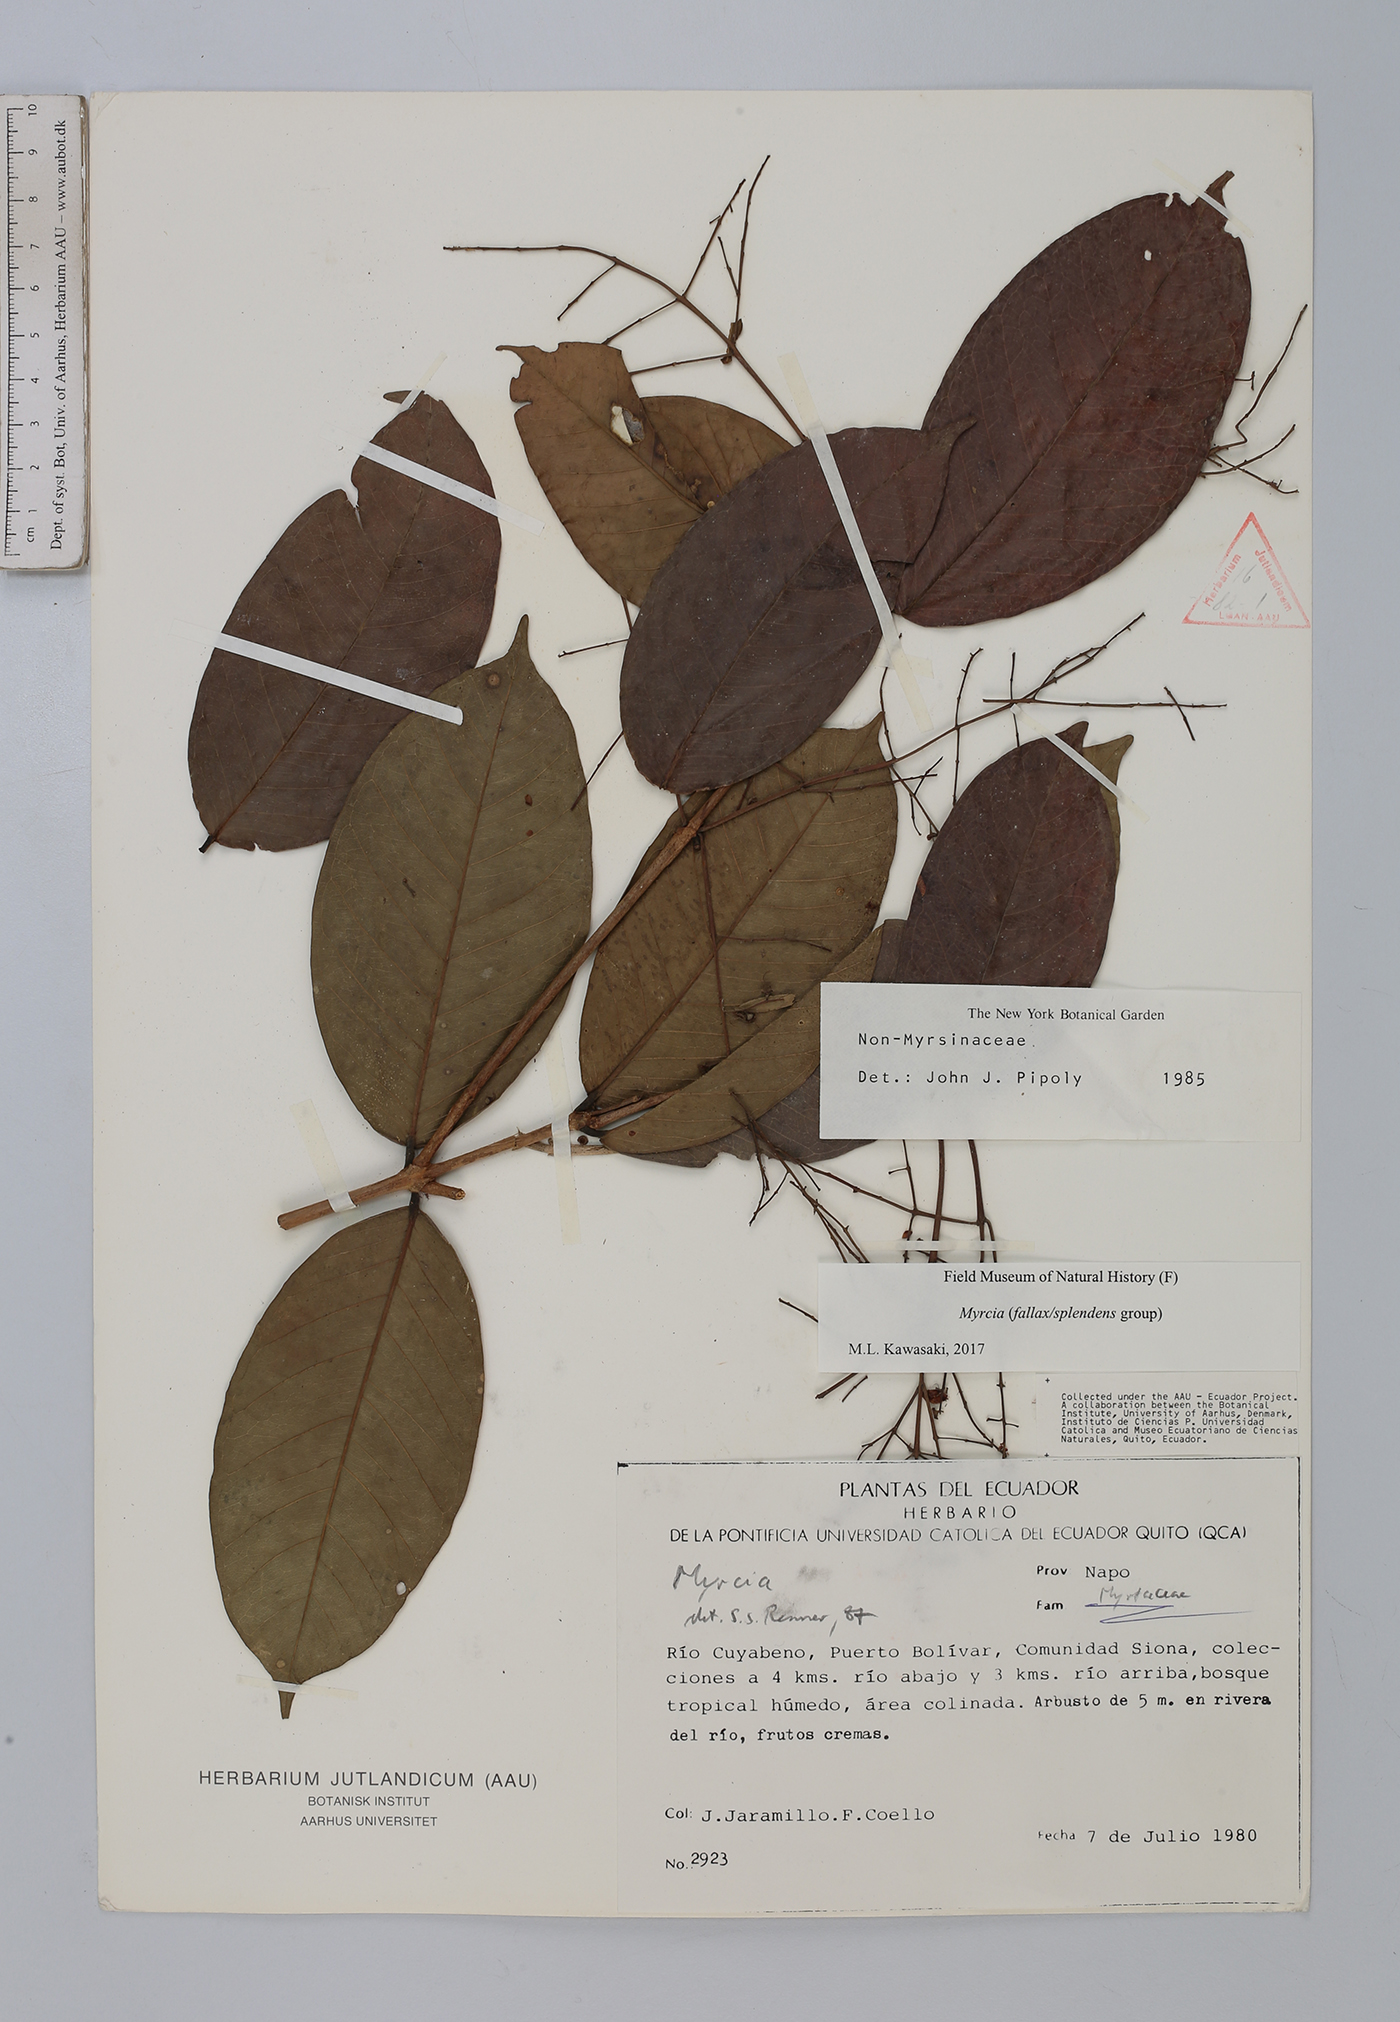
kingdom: Plantae
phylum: Tracheophyta
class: Magnoliopsida
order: Myrtales
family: Myrtaceae
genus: Myrcia
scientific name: Myrcia
